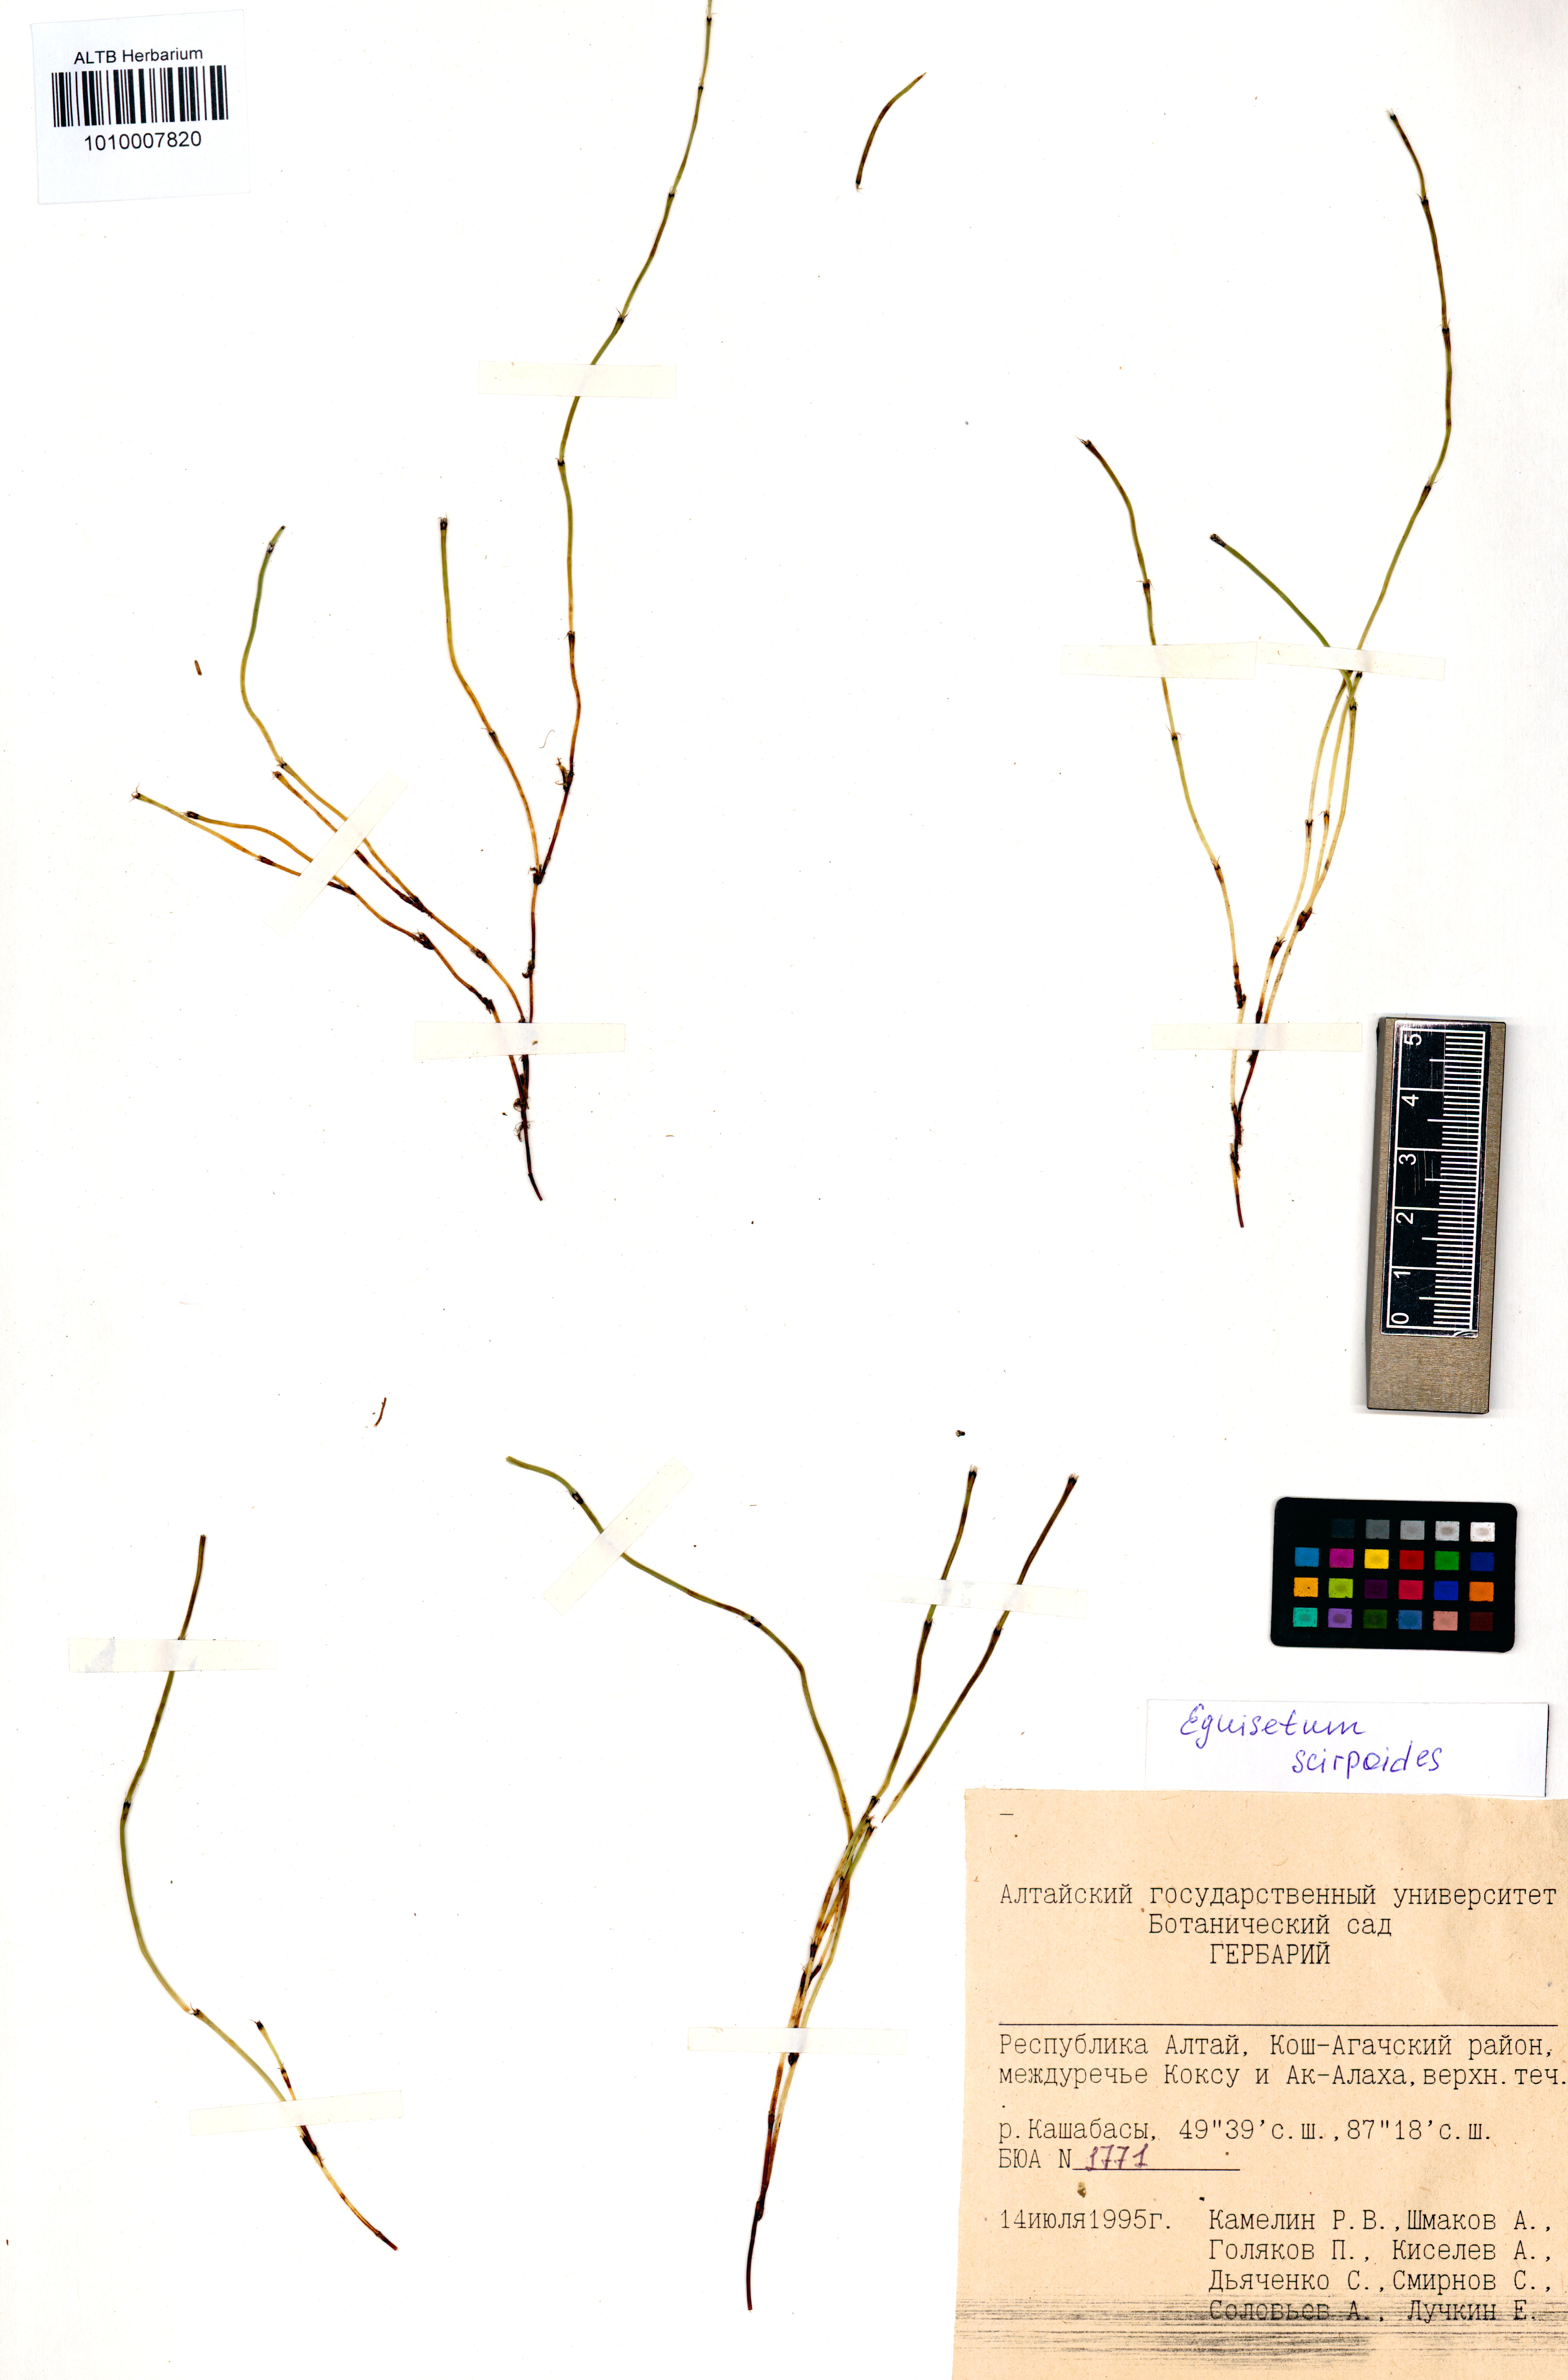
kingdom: Plantae
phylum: Tracheophyta
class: Polypodiopsida
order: Equisetales
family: Equisetaceae
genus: Equisetum
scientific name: Equisetum scirpoides
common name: Delicate horsetail
